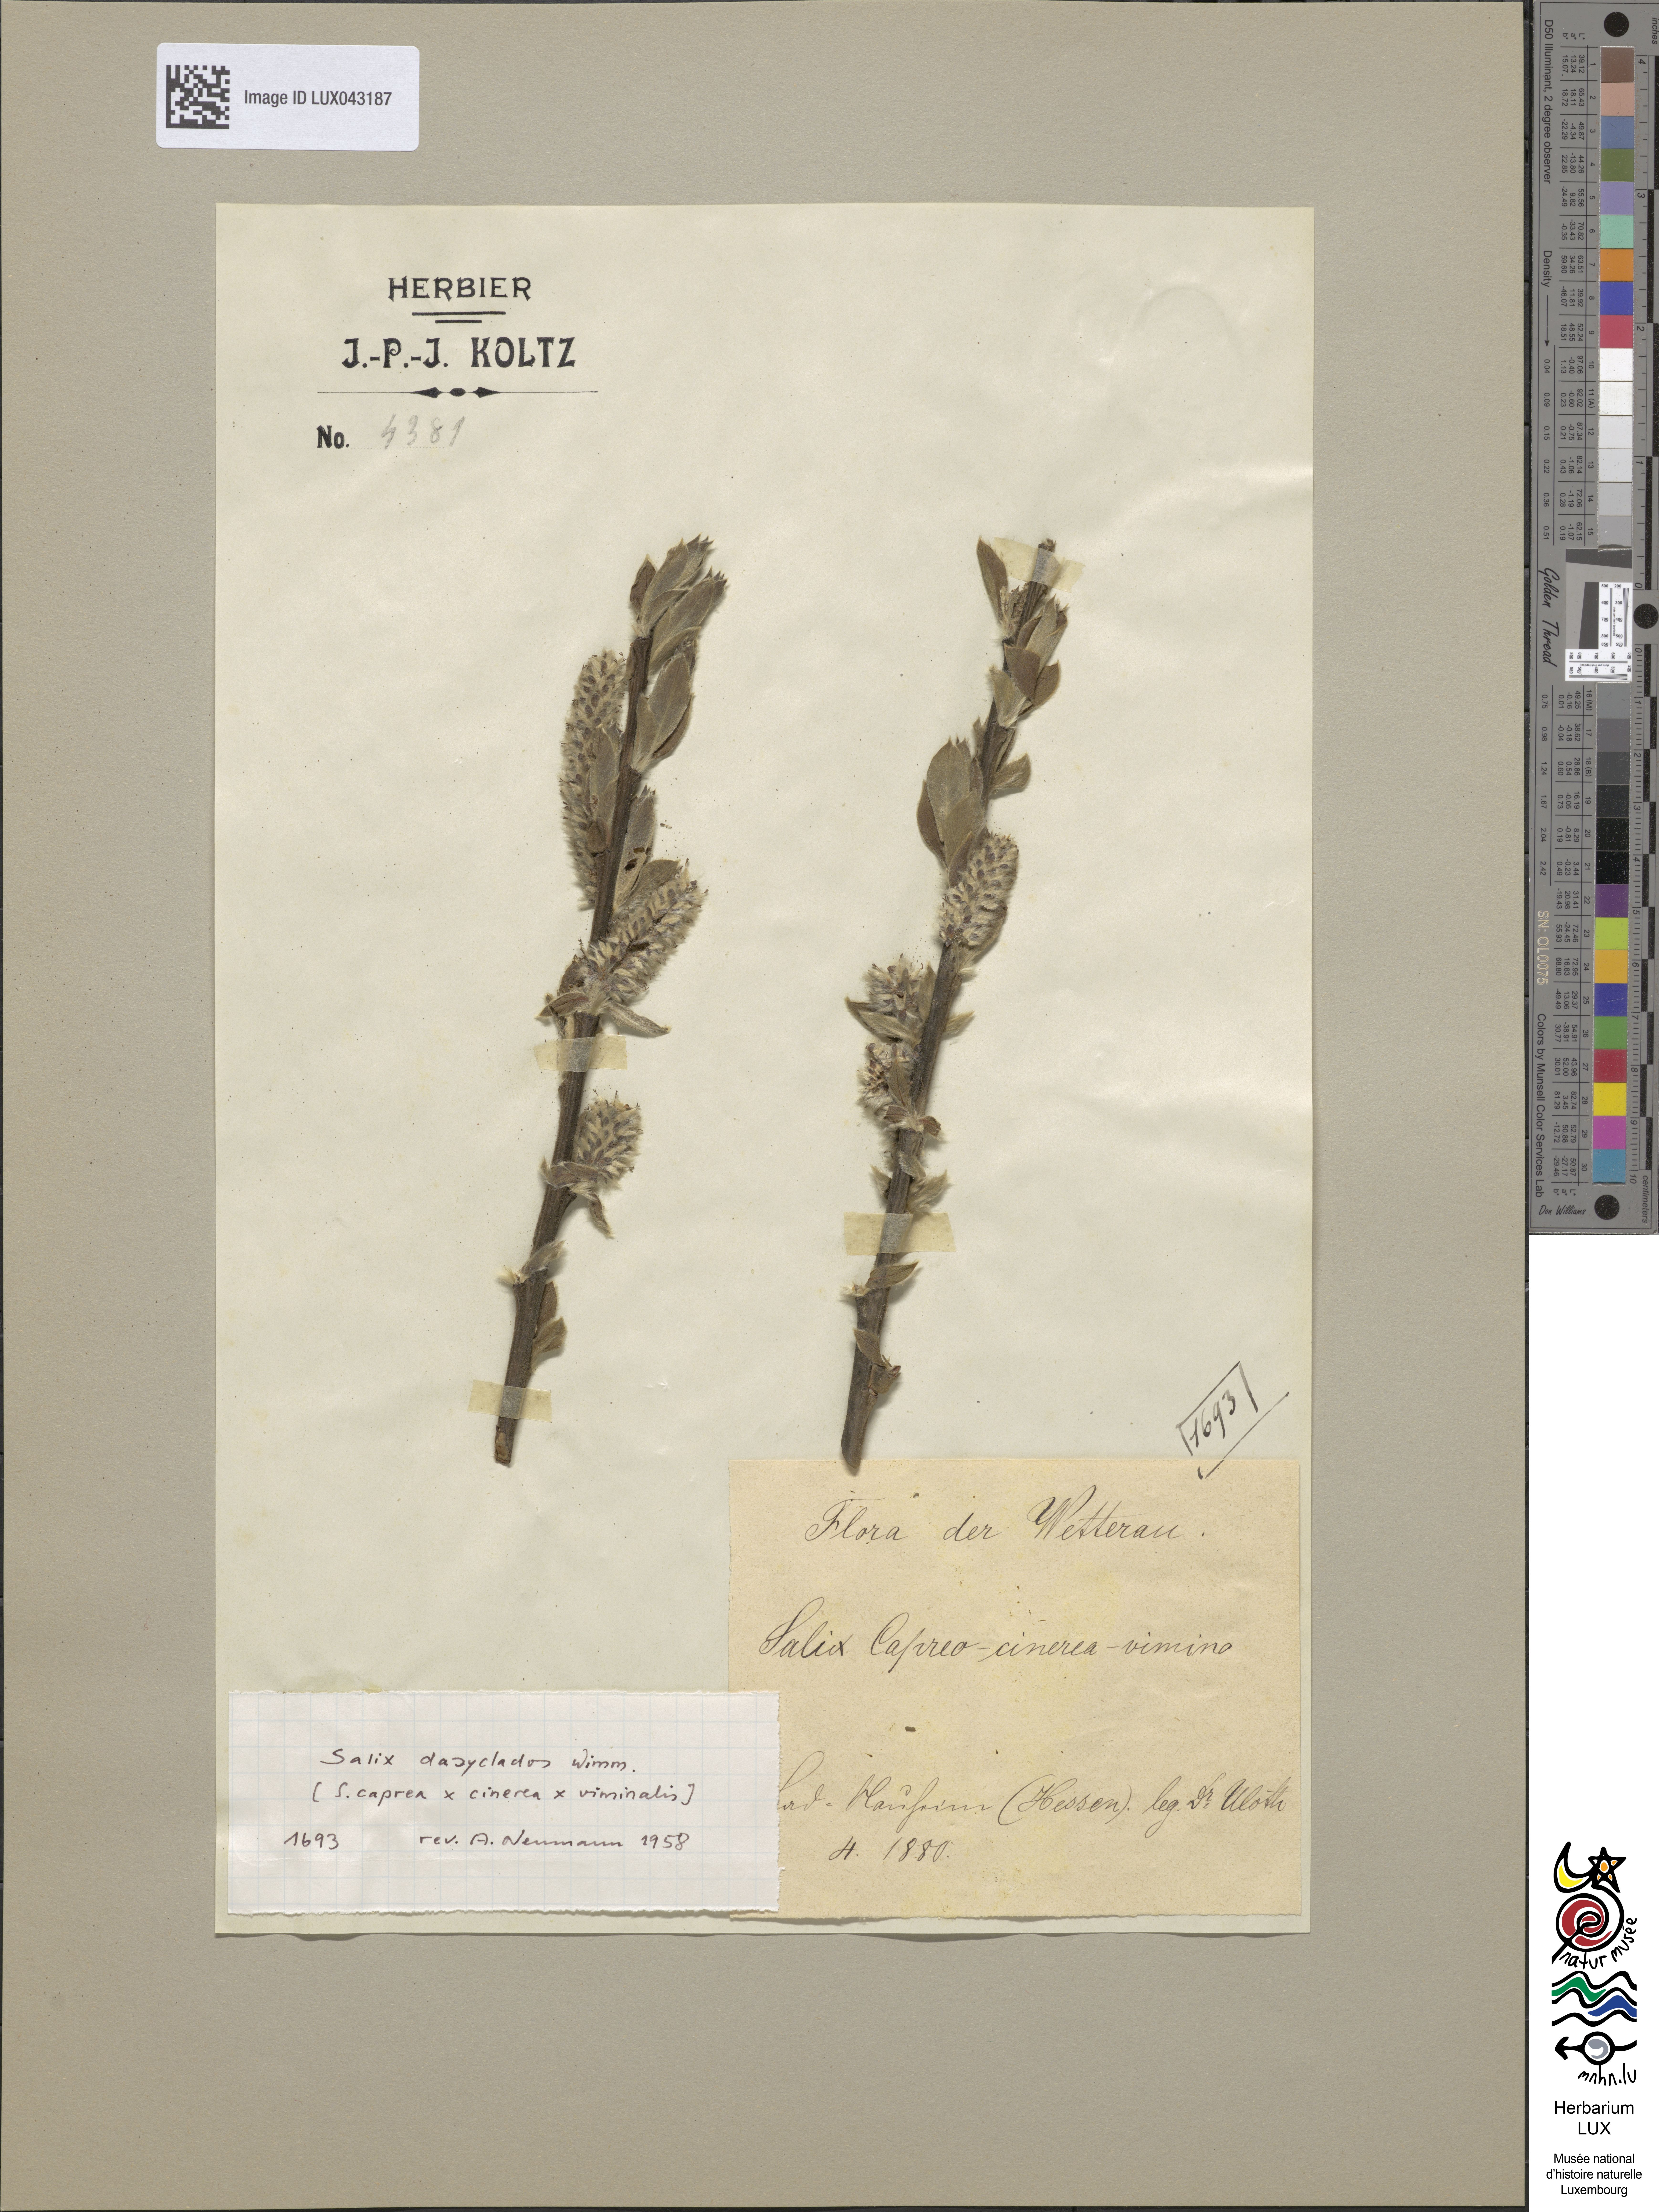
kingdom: Plantae
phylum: Tracheophyta
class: Magnoliopsida
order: Malpighiales
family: Salicaceae
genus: Salix
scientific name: Salix gmelinii
